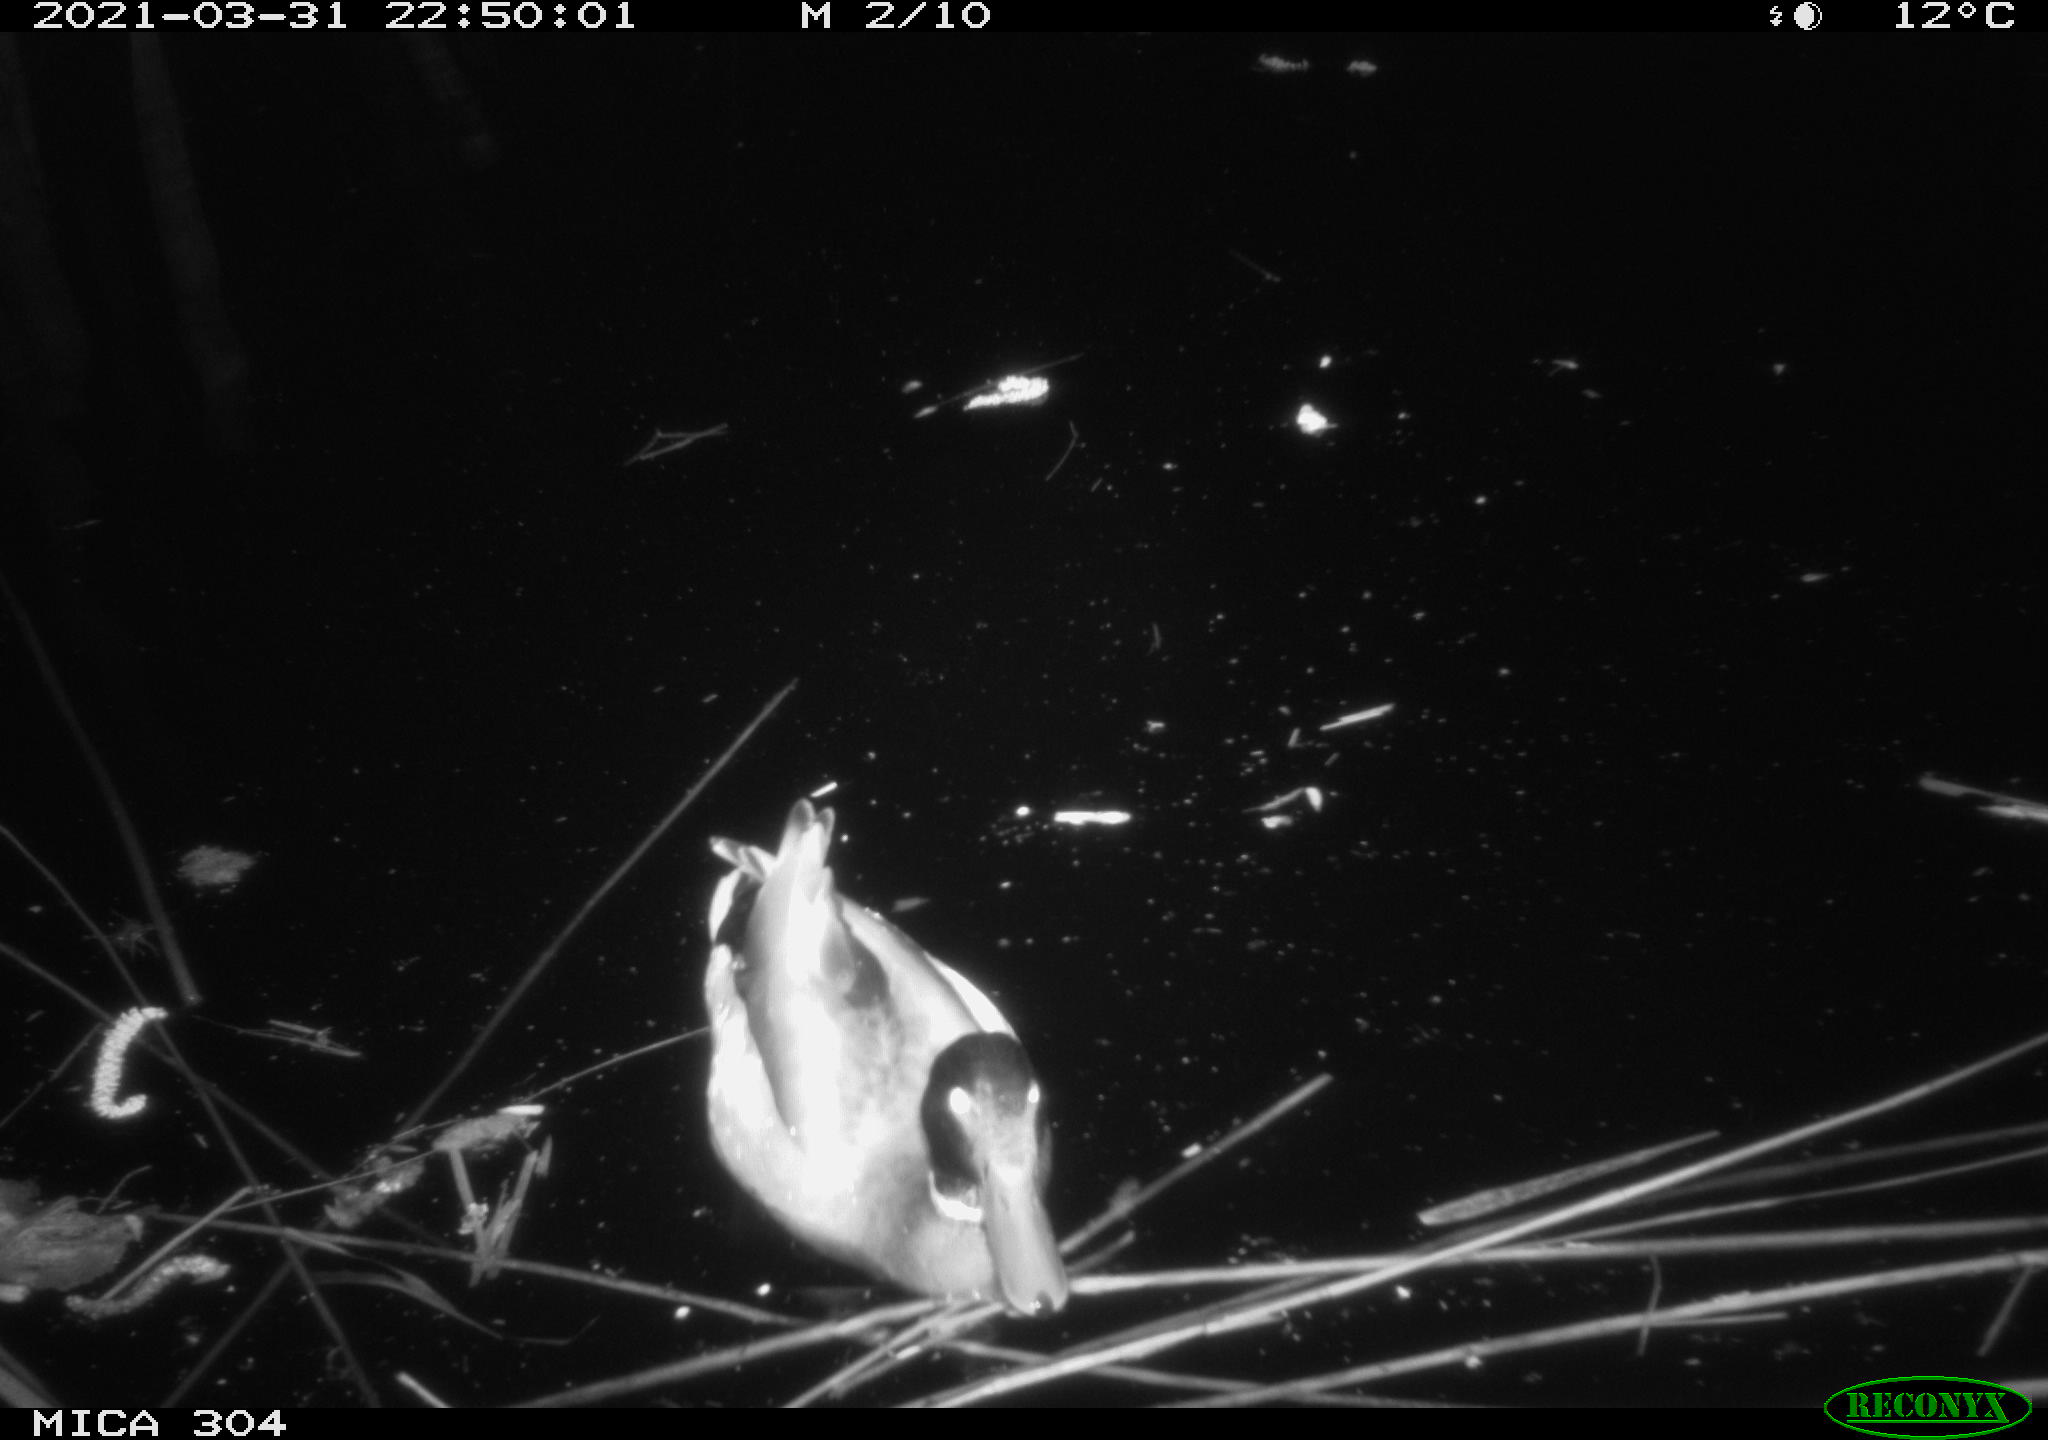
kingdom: Animalia
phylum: Chordata
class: Aves
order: Gruiformes
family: Rallidae
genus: Gallinula
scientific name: Gallinula chloropus
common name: Common moorhen
